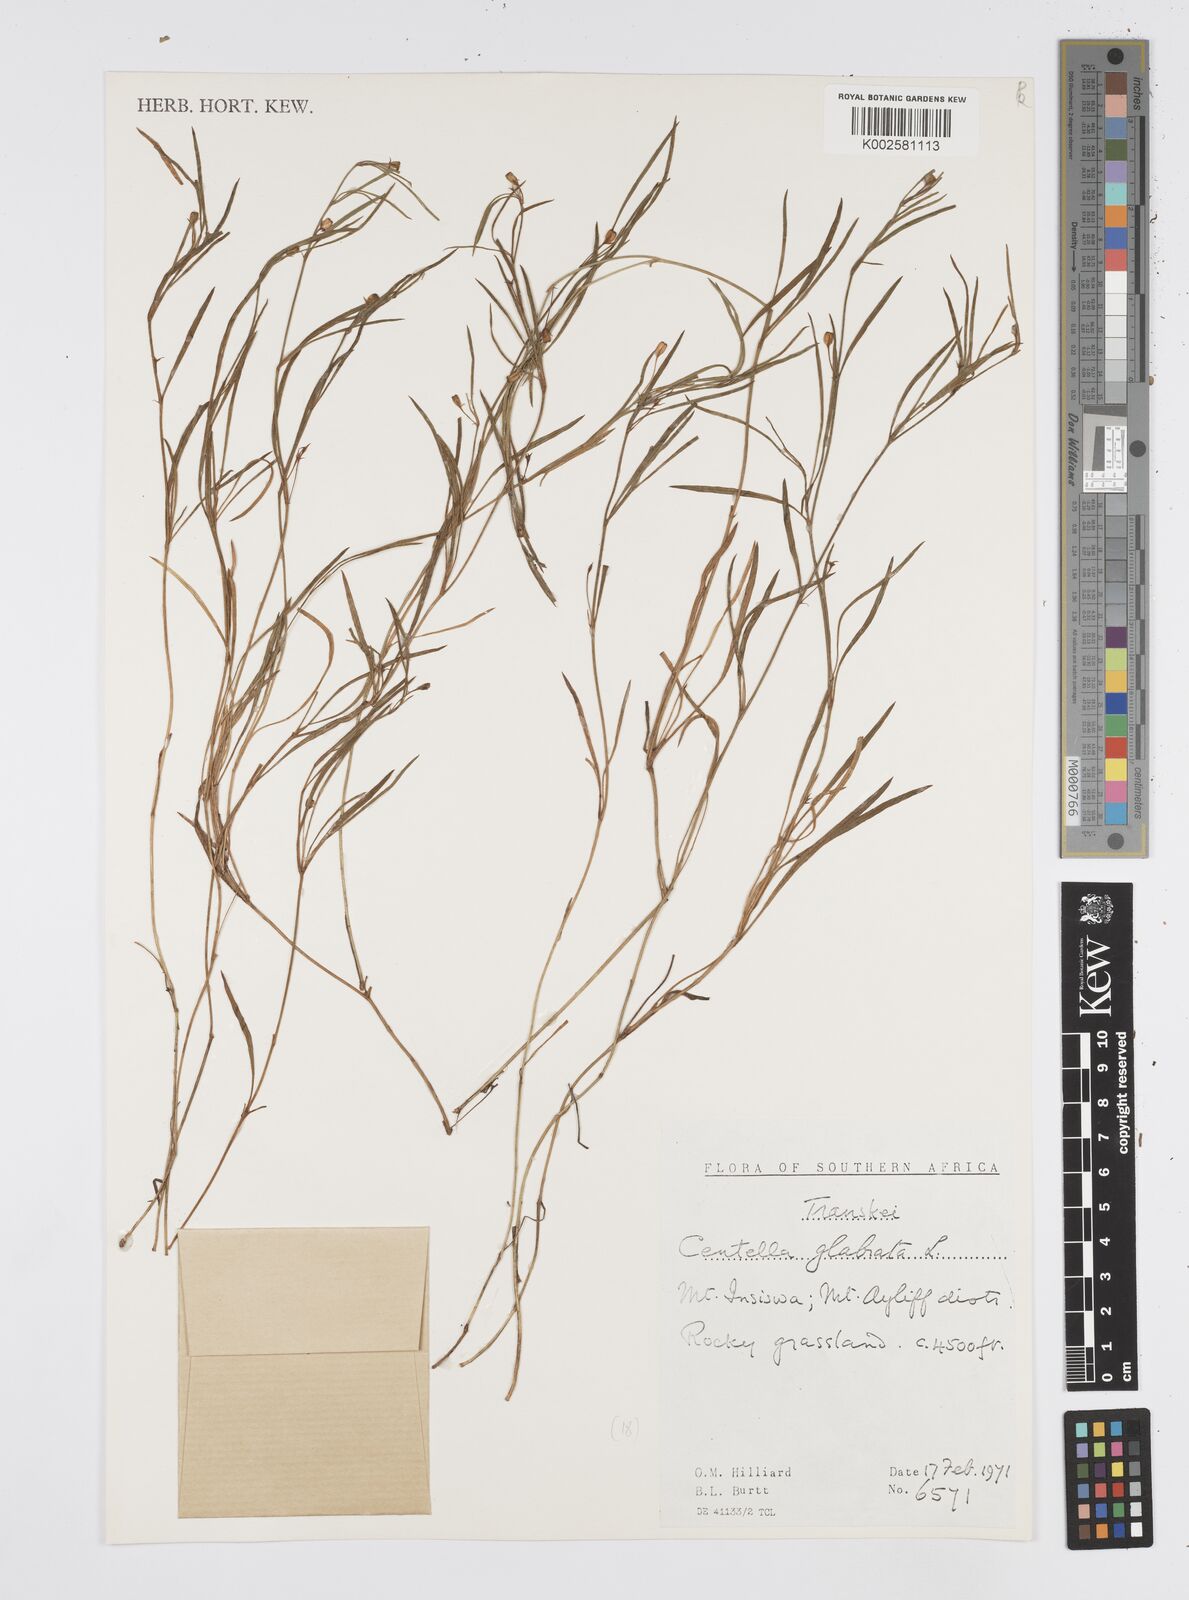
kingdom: Plantae
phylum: Tracheophyta
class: Magnoliopsida
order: Apiales
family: Apiaceae
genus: Centella
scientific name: Centella glabrata
